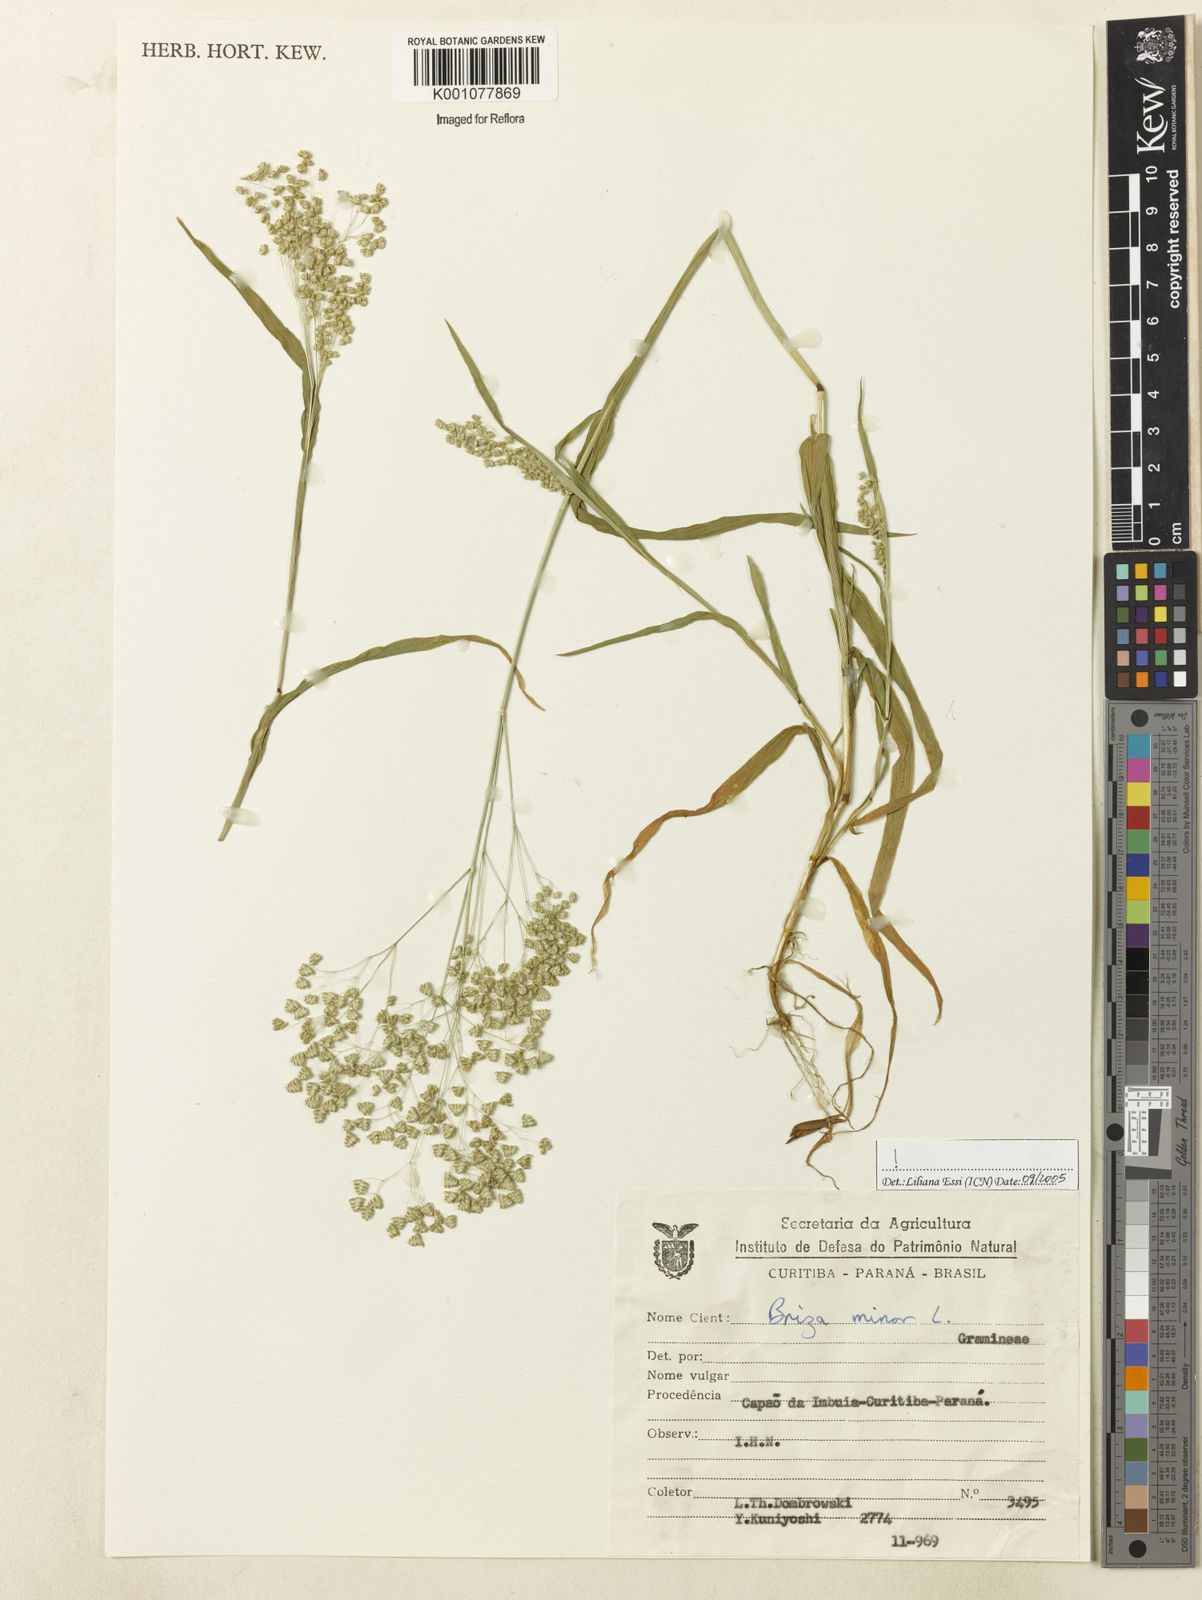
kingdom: Plantae
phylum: Tracheophyta
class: Liliopsida
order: Poales
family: Poaceae
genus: Briza
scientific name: Briza minor
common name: Lesser quaking-grass
